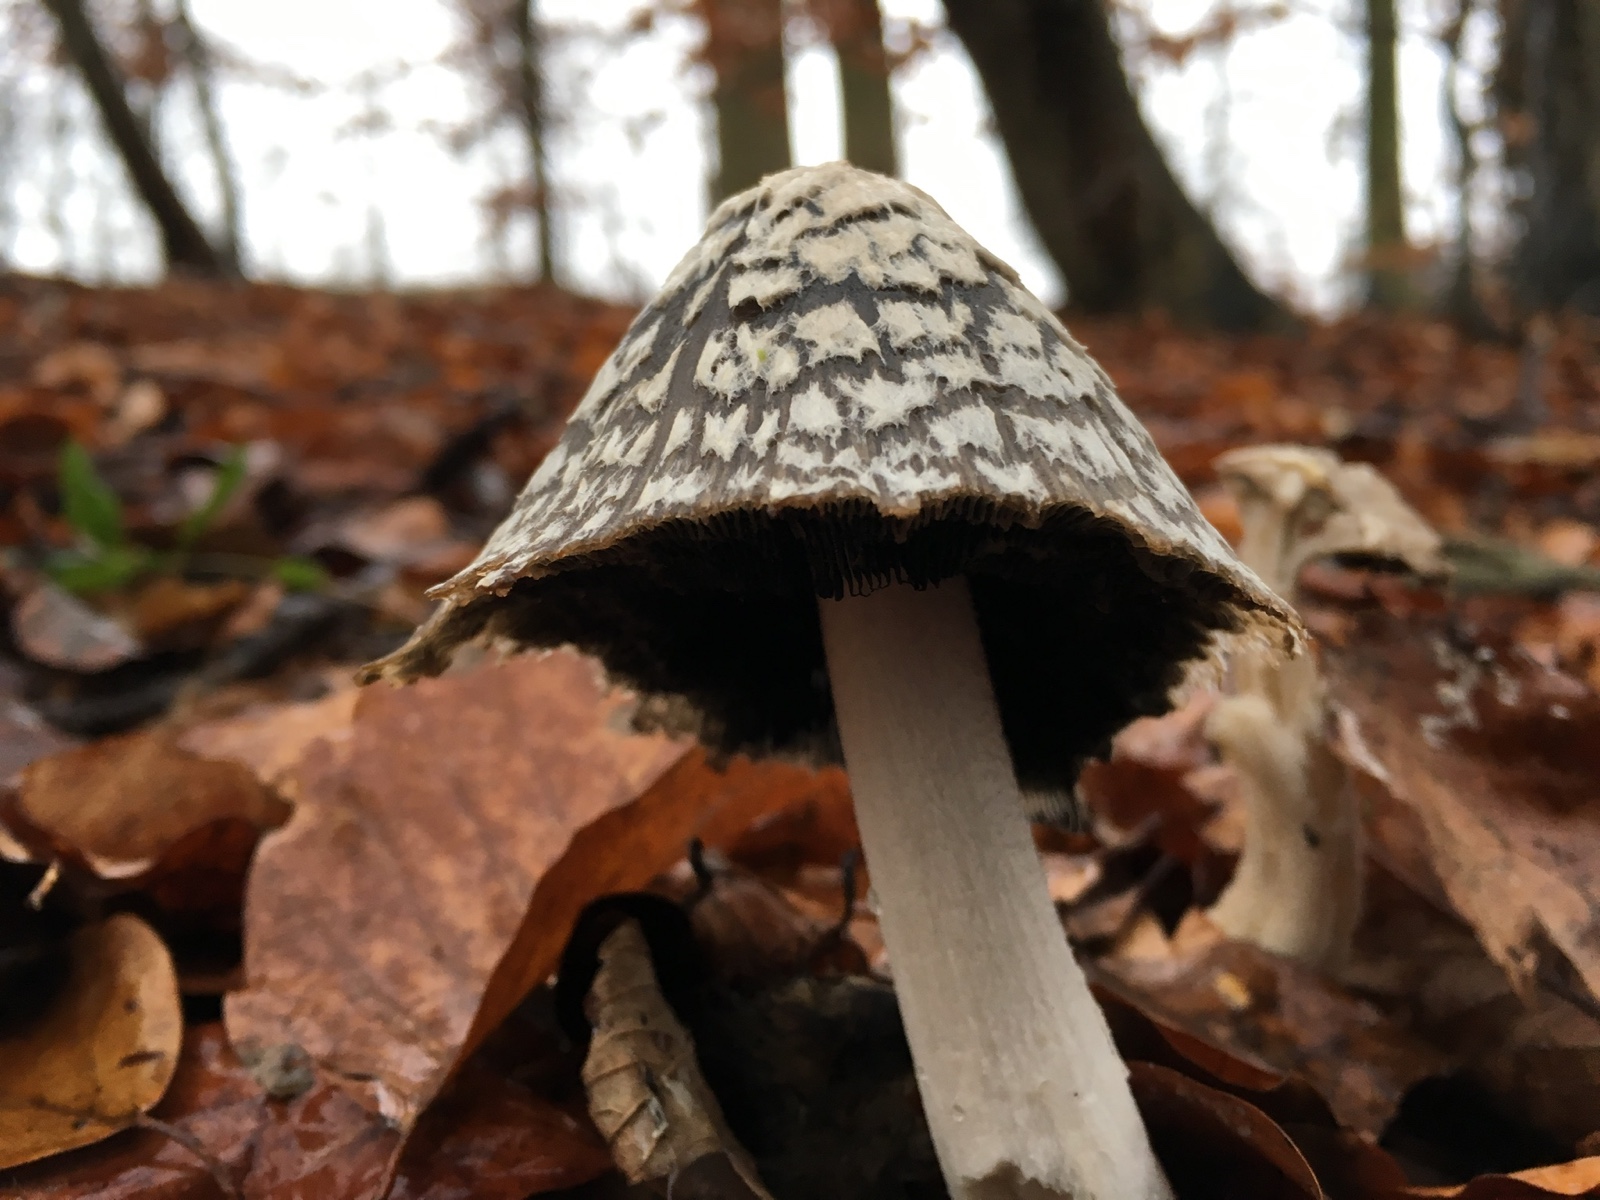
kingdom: Fungi
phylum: Basidiomycota
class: Agaricomycetes
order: Agaricales
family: Psathyrellaceae
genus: Coprinopsis
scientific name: Coprinopsis picacea
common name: skade-blækhat
